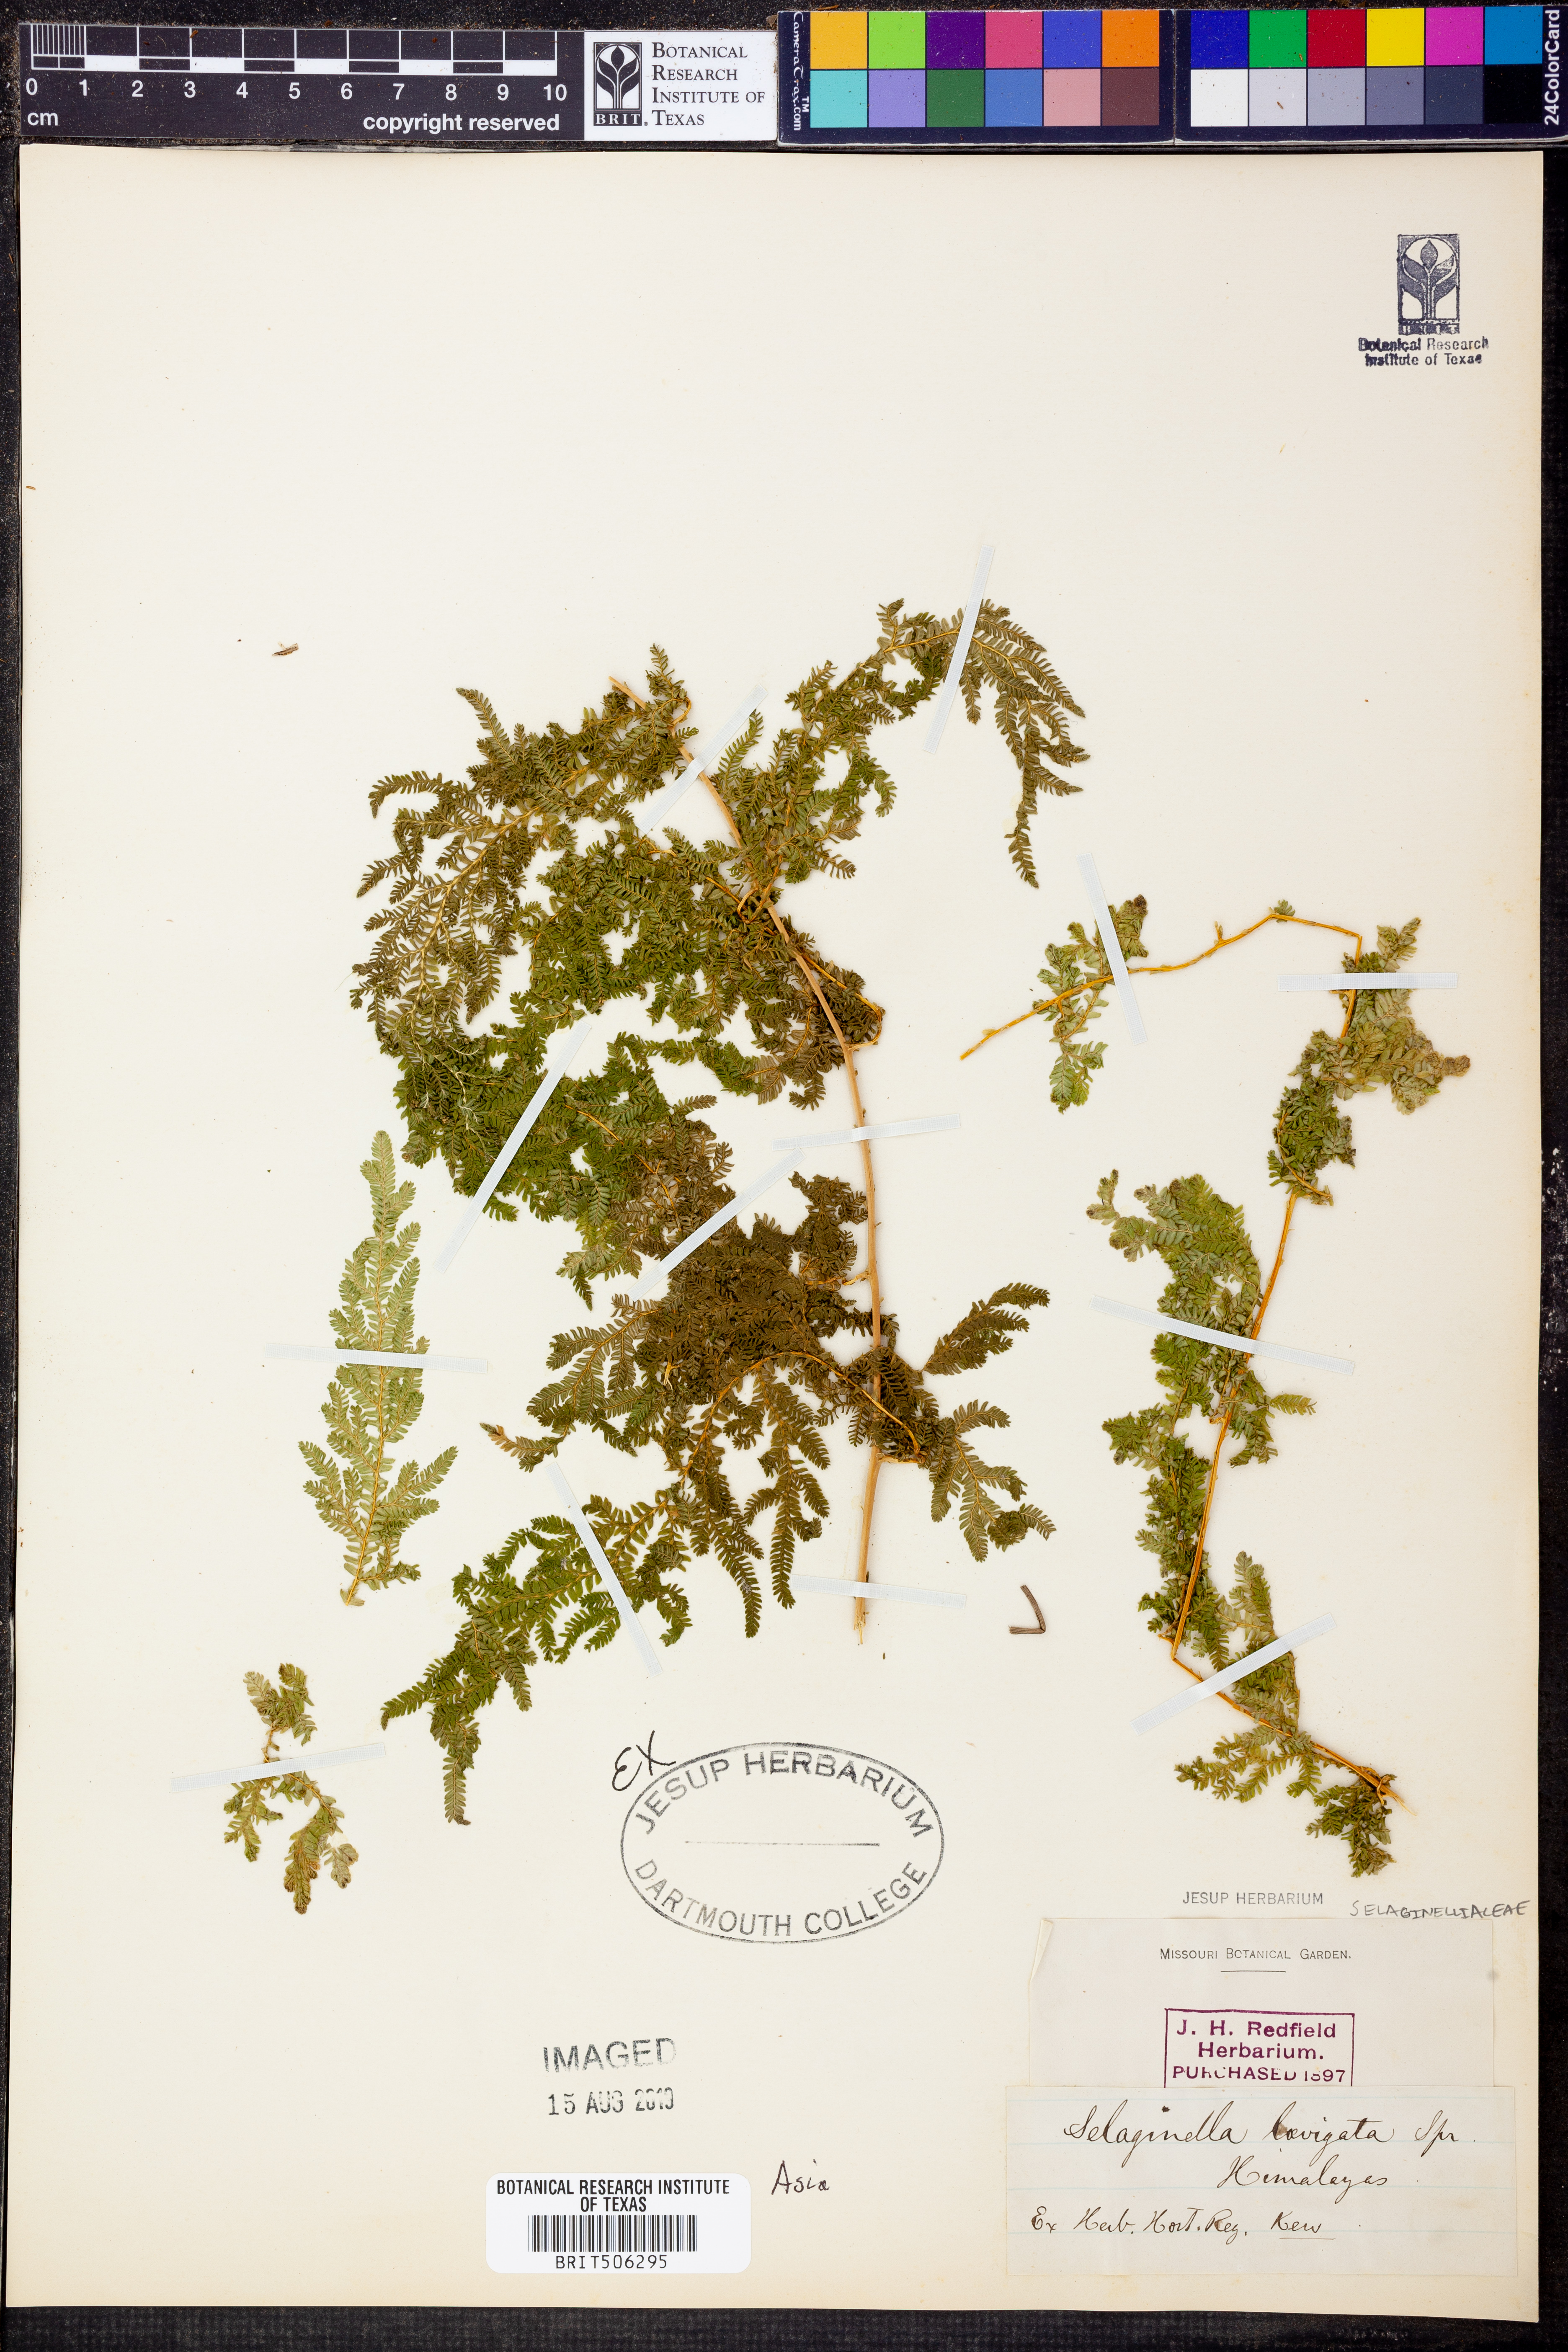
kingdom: Plantae
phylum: Tracheophyta
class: Lycopodiopsida
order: Selaginellales
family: Selaginellaceae
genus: Selaginella
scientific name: Selaginella
